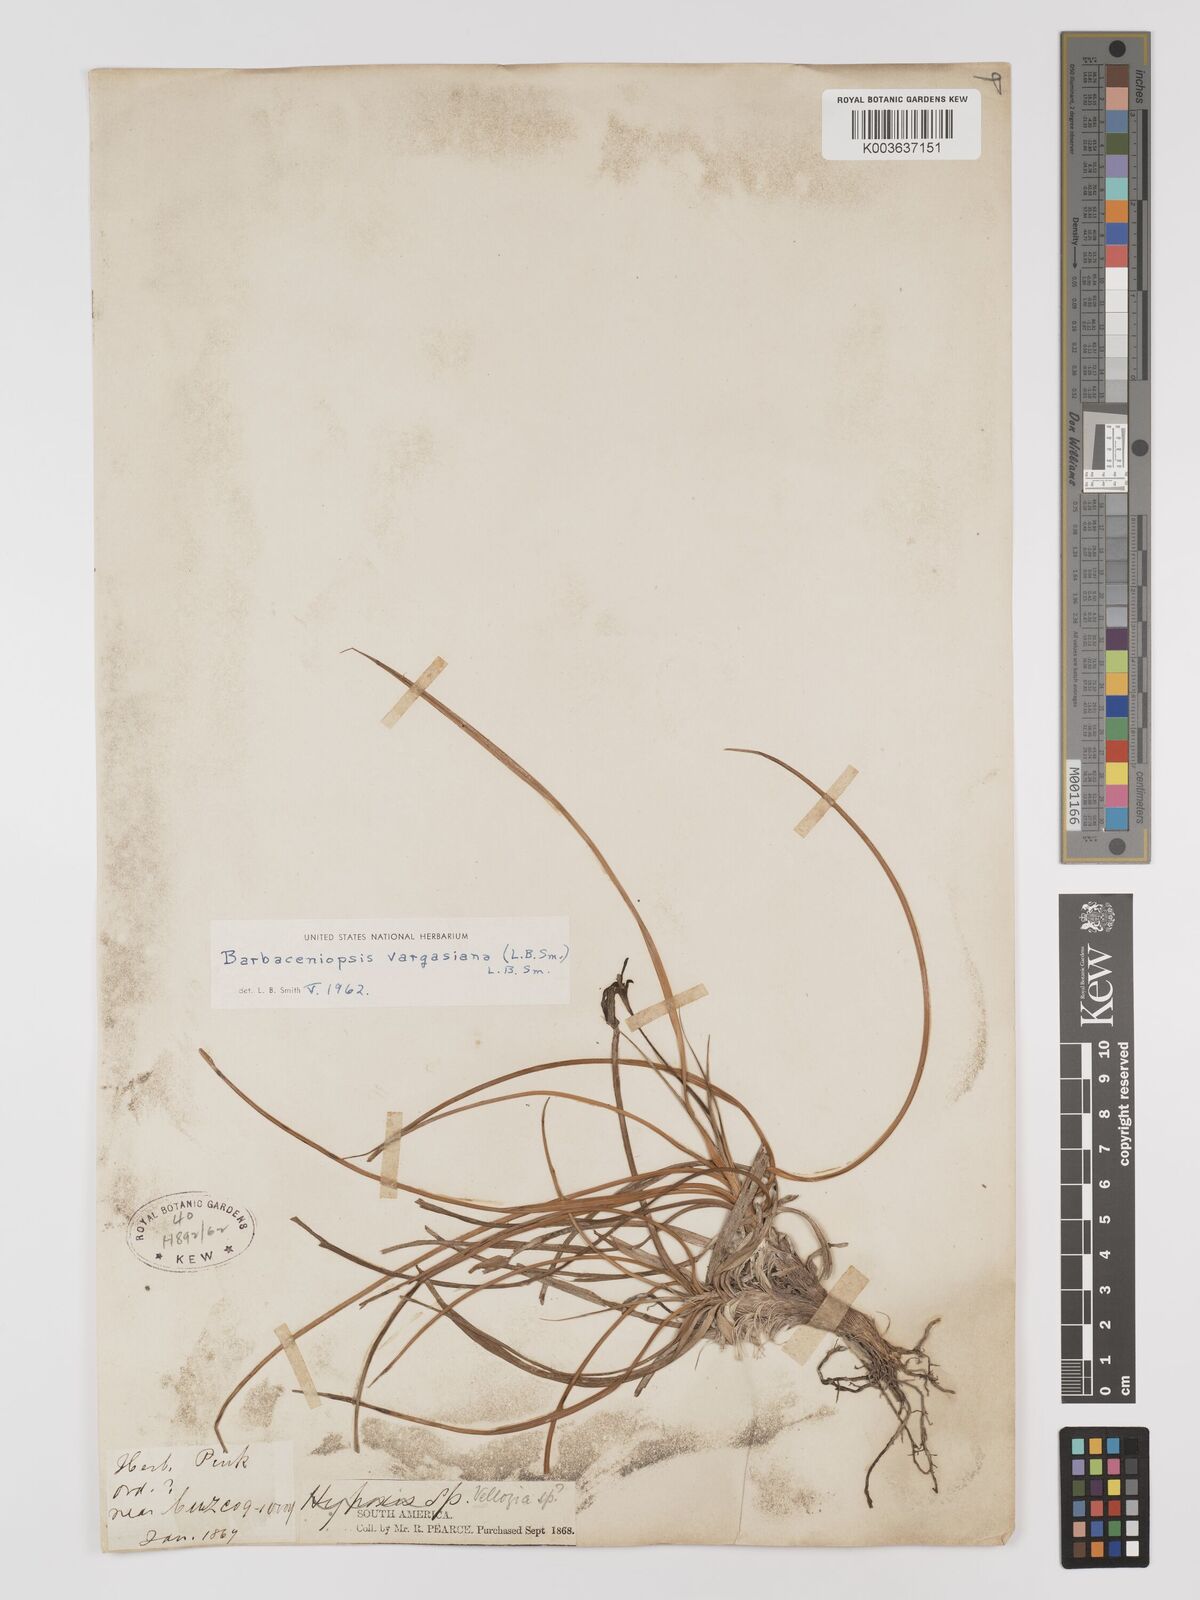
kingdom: Plantae
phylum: Tracheophyta
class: Liliopsida
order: Pandanales
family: Velloziaceae
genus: Barbaceniopsis
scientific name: Barbaceniopsis vargasiana
